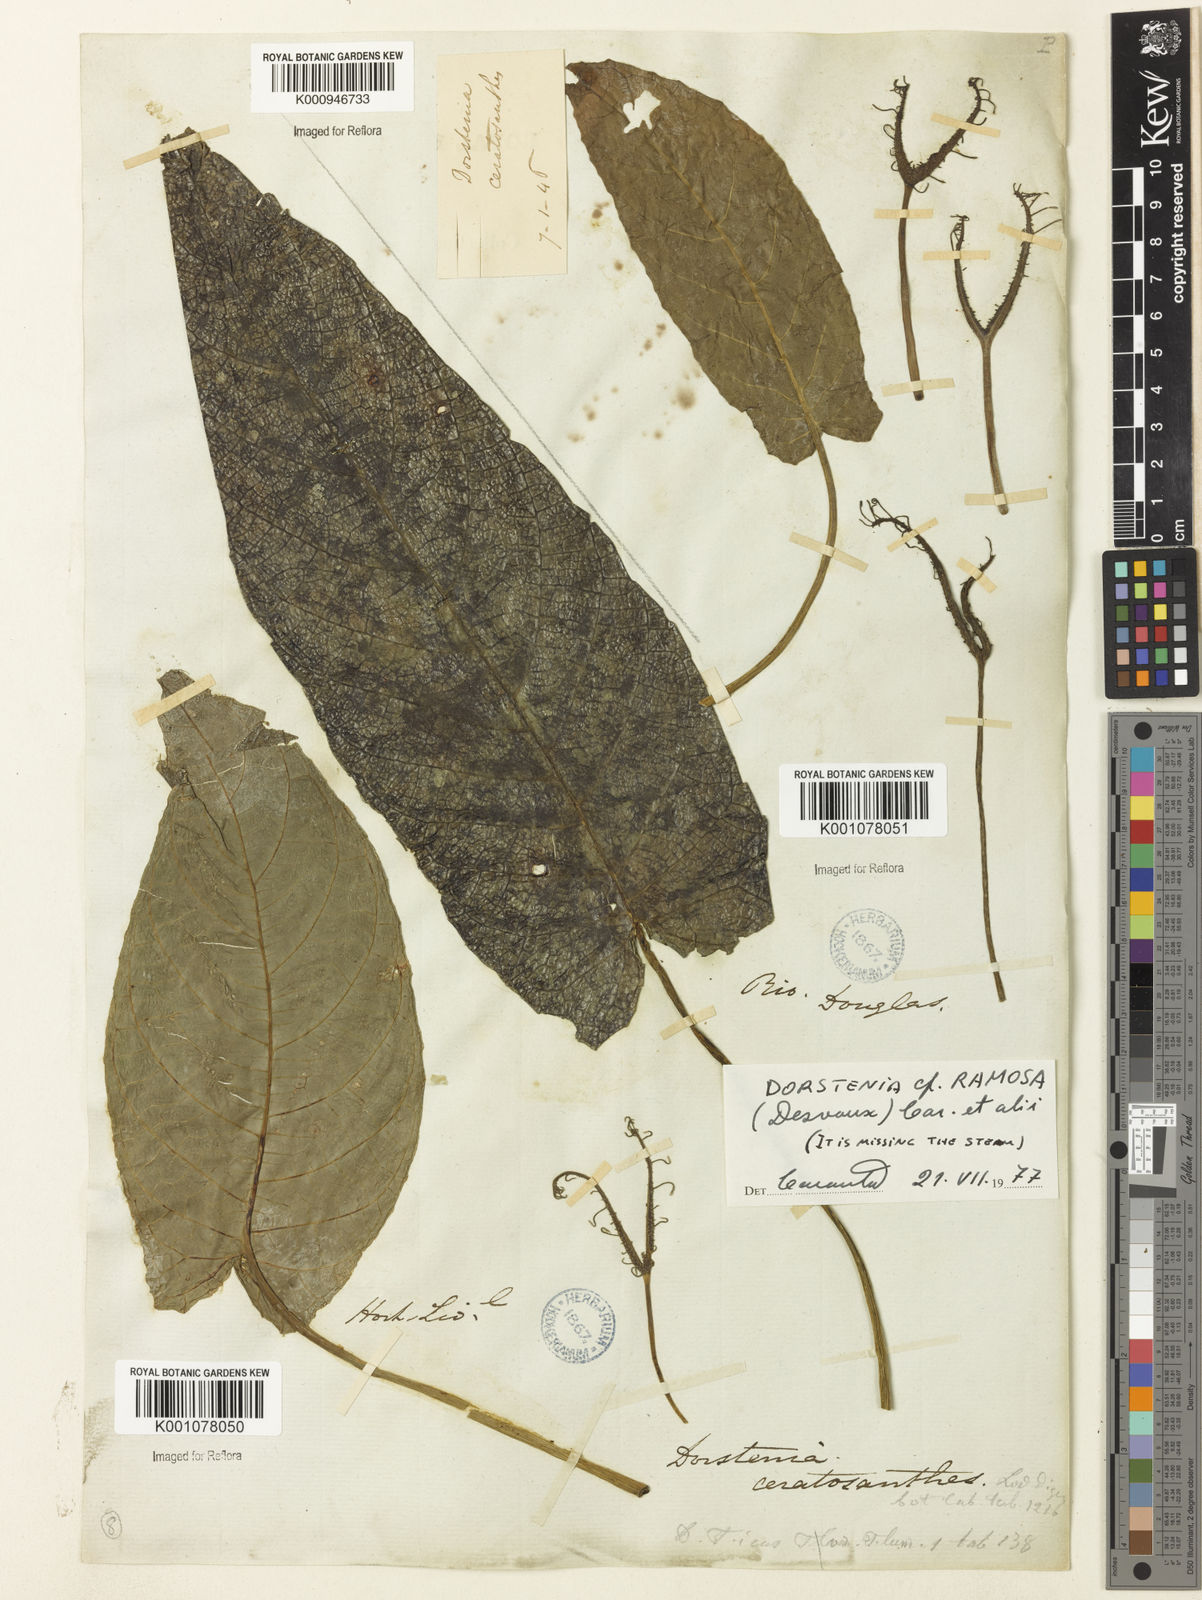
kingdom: Plantae
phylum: Tracheophyta
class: Magnoliopsida
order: Rosales
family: Moraceae
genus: Dorstenia
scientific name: Dorstenia ramosa
